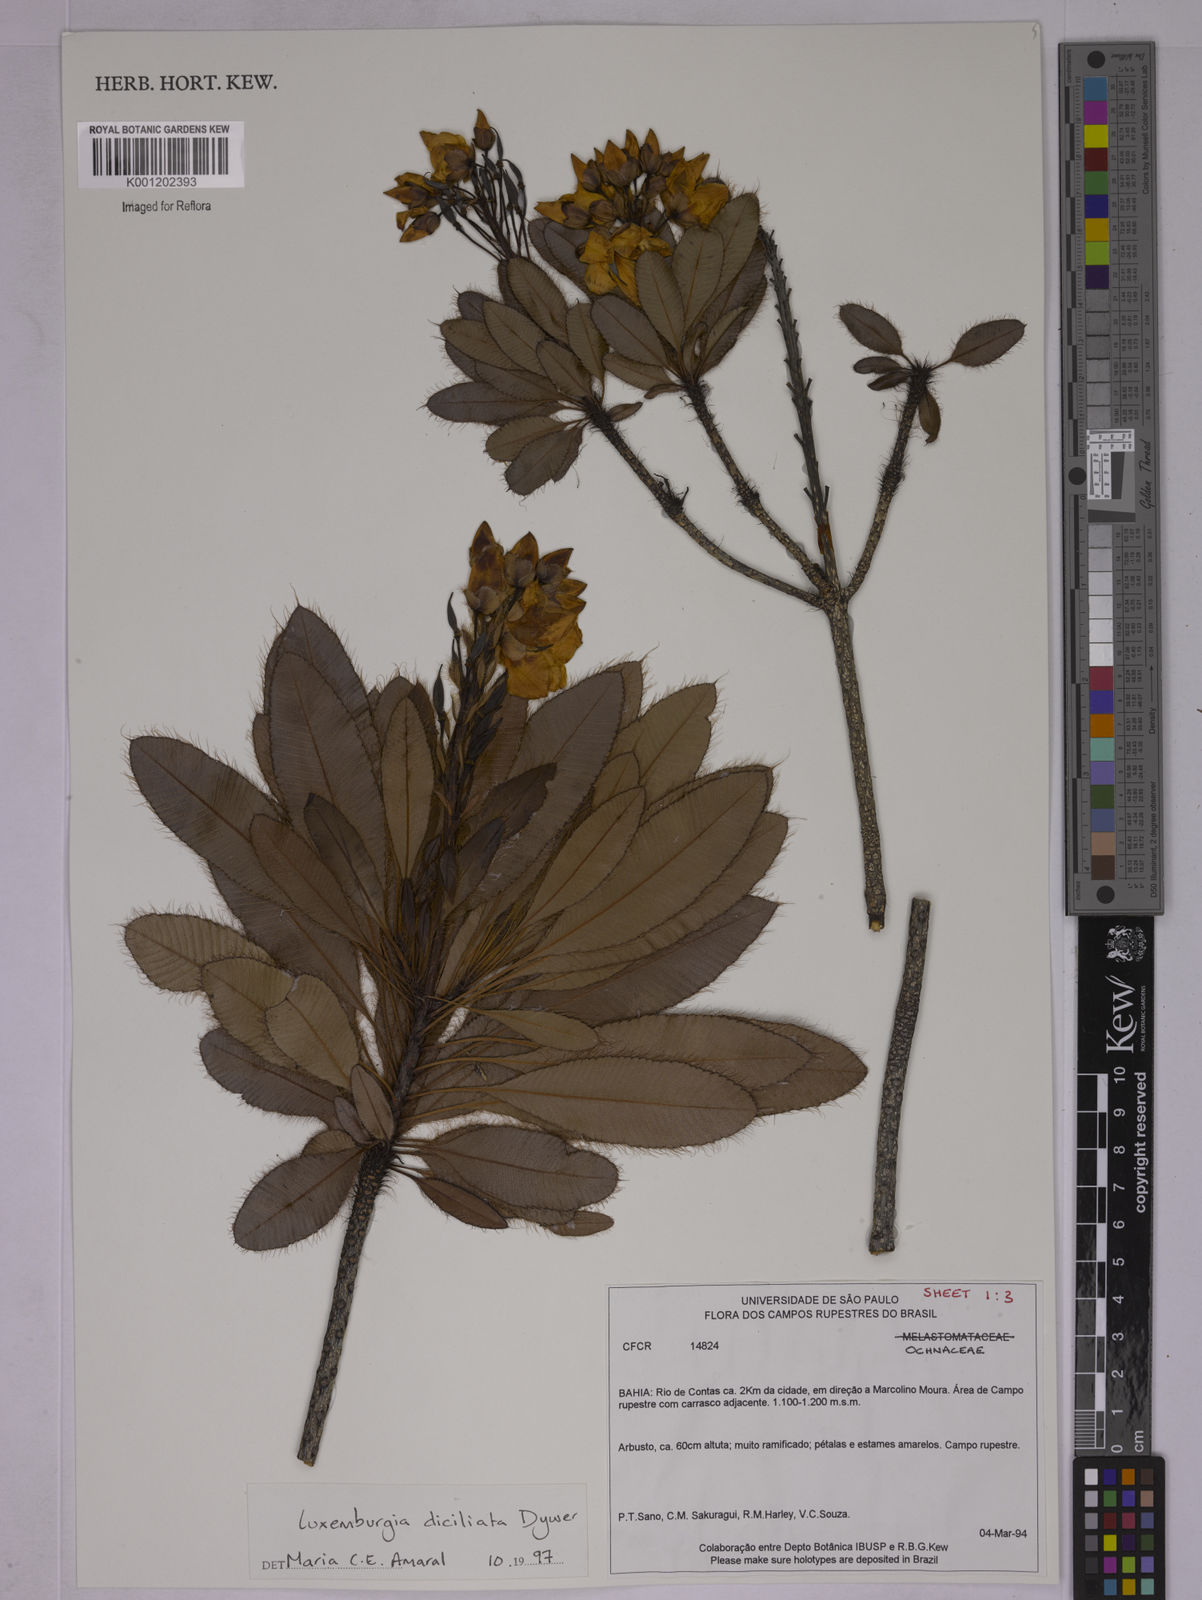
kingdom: Plantae
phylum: Tracheophyta
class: Magnoliopsida
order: Malpighiales
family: Ochnaceae
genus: Luxemburgia
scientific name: Luxemburgia diciliata
